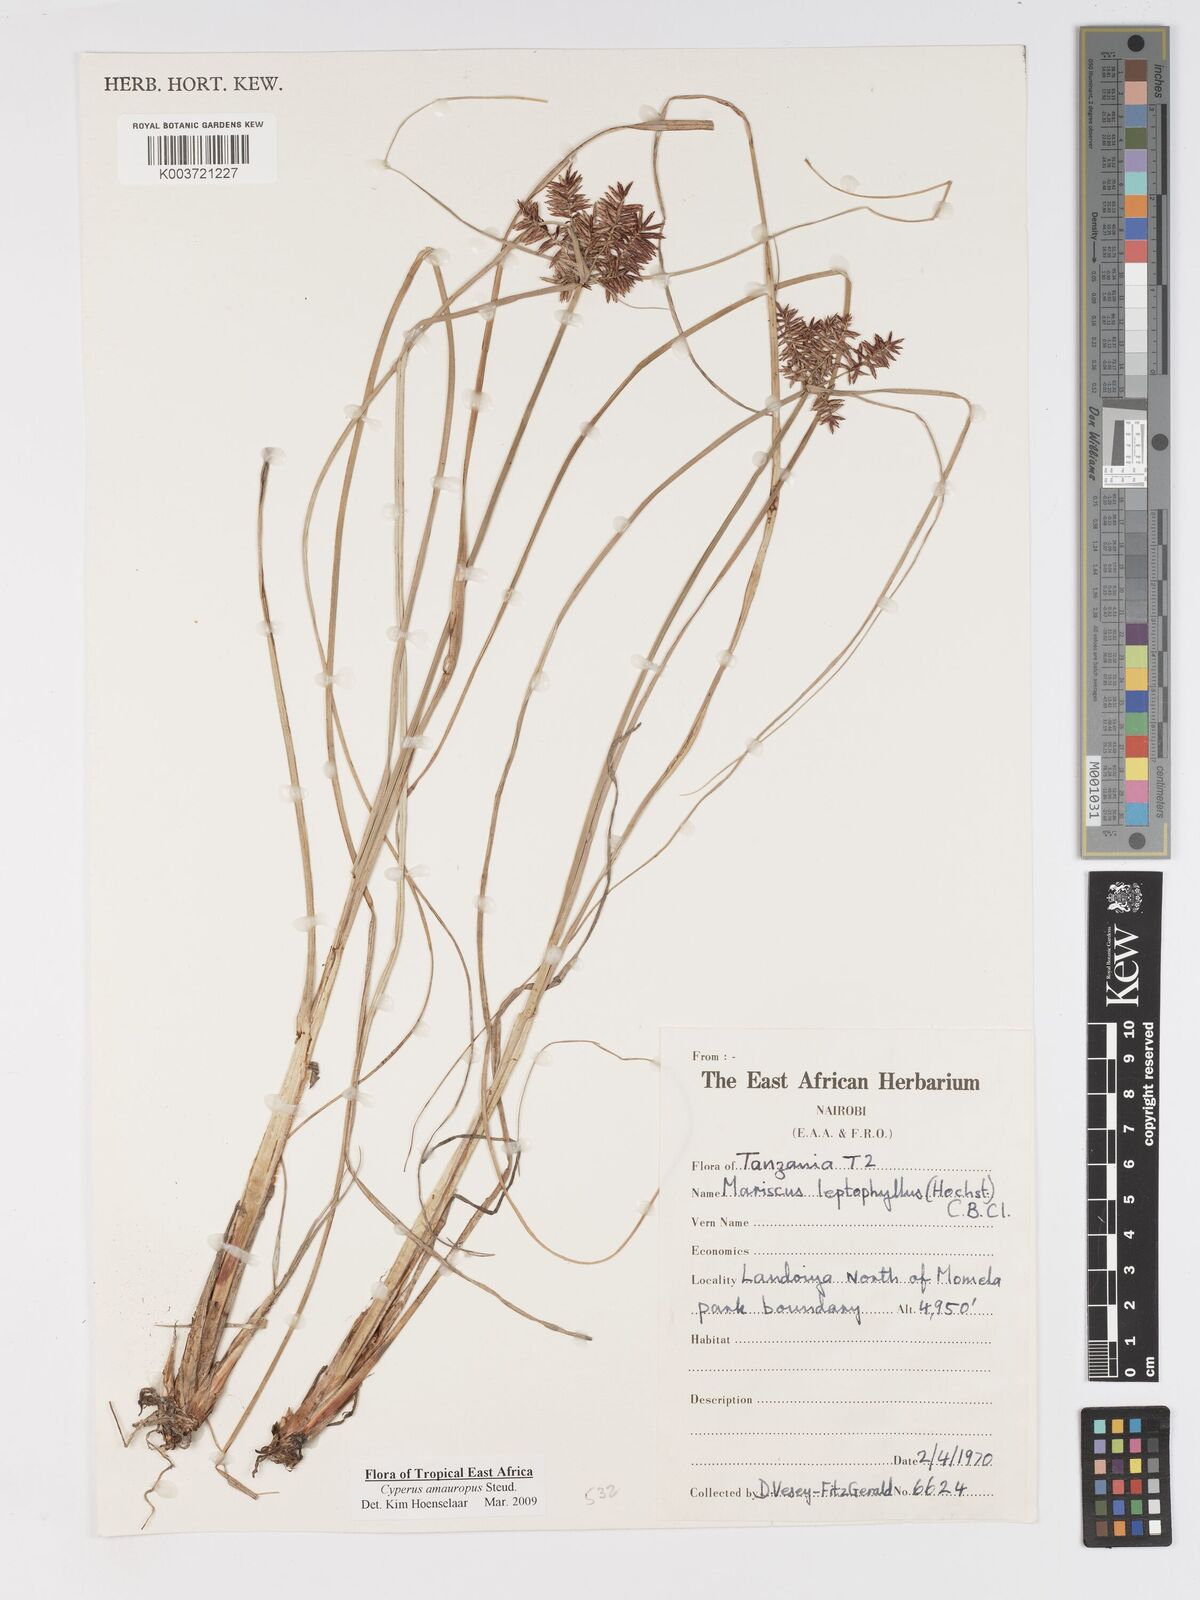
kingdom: Plantae
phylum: Tracheophyta
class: Liliopsida
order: Poales
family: Cyperaceae
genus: Cyperus
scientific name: Cyperus amauropus
